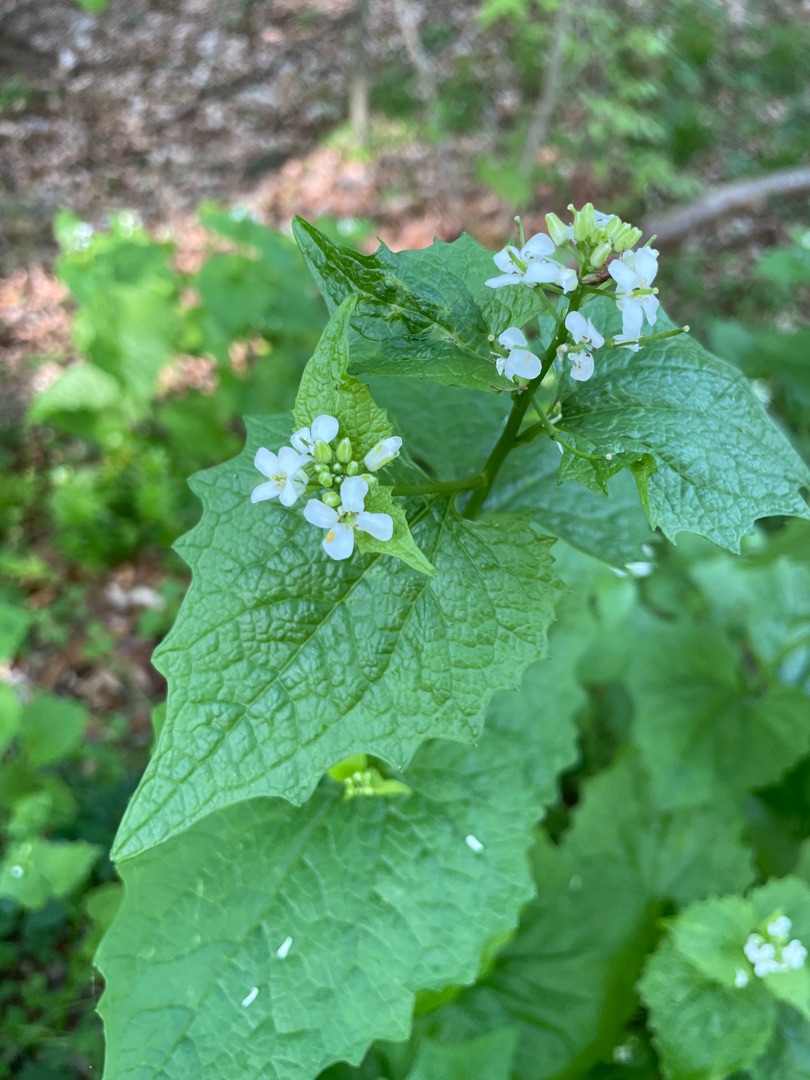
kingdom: Plantae
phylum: Tracheophyta
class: Magnoliopsida
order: Brassicales
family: Brassicaceae
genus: Alliaria
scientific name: Alliaria petiolata
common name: Løgkarse
